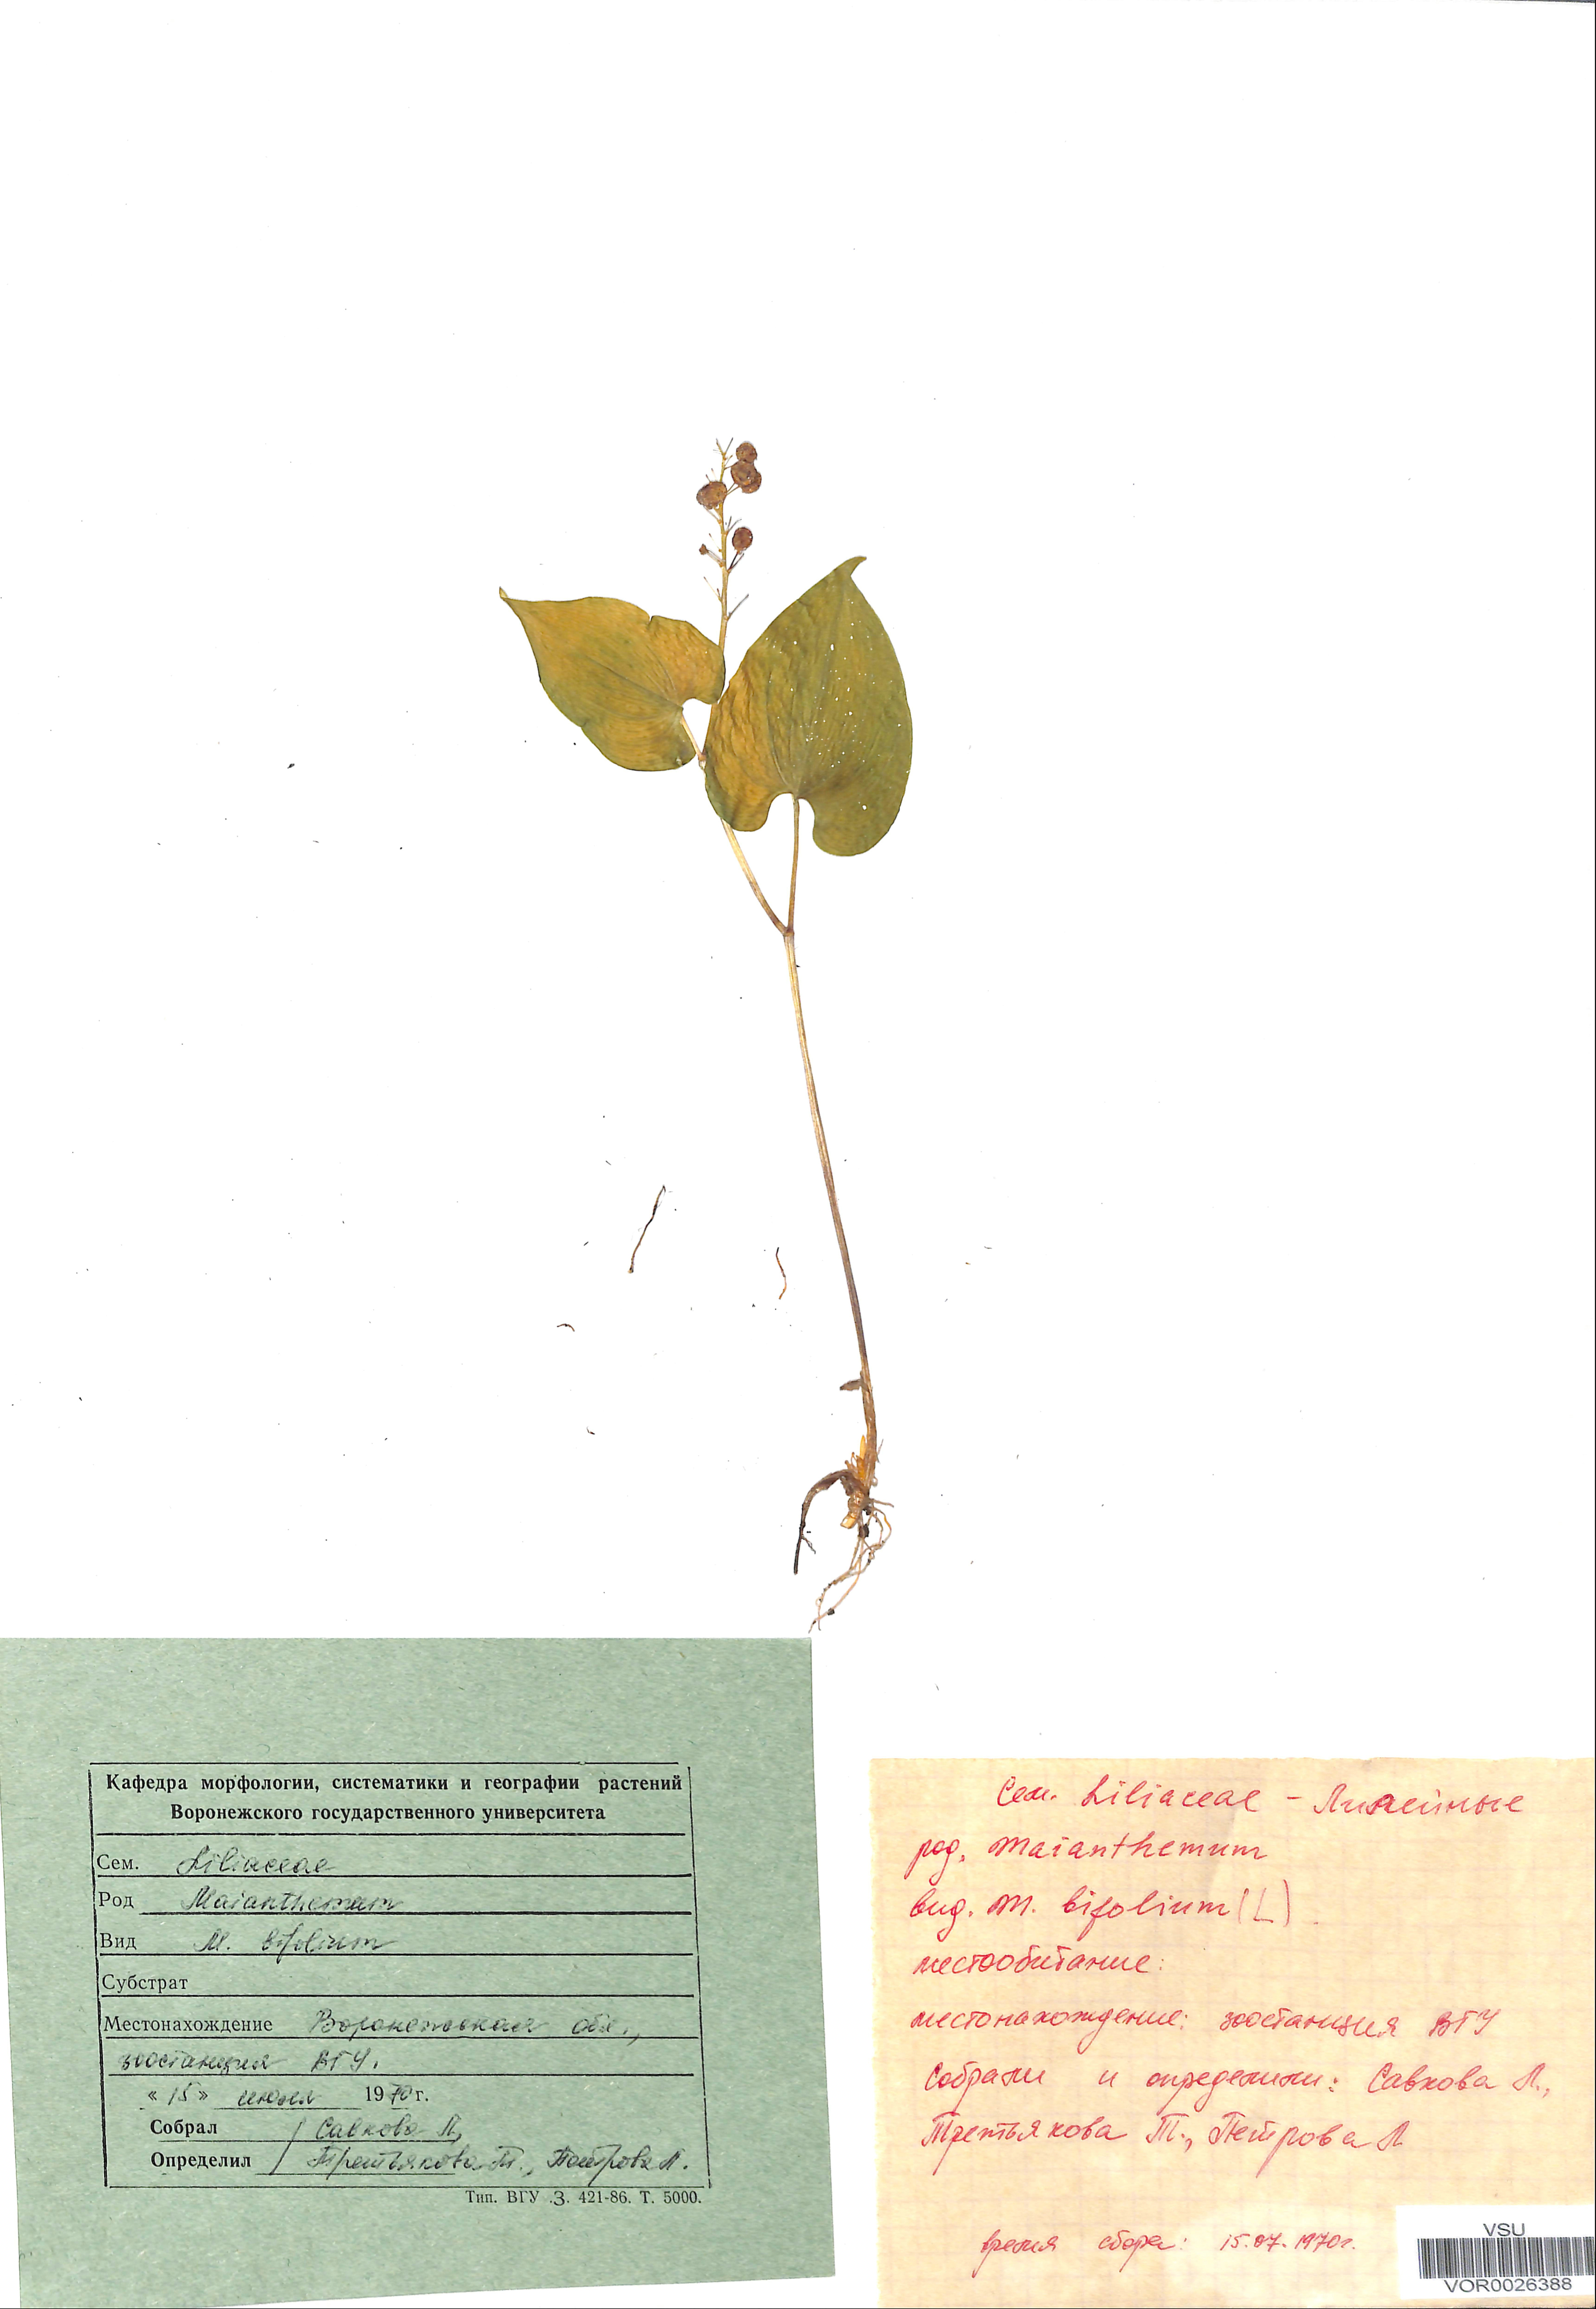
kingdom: Plantae
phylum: Tracheophyta
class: Liliopsida
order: Asparagales
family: Asparagaceae
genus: Maianthemum
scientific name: Maianthemum bifolium
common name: May lily
